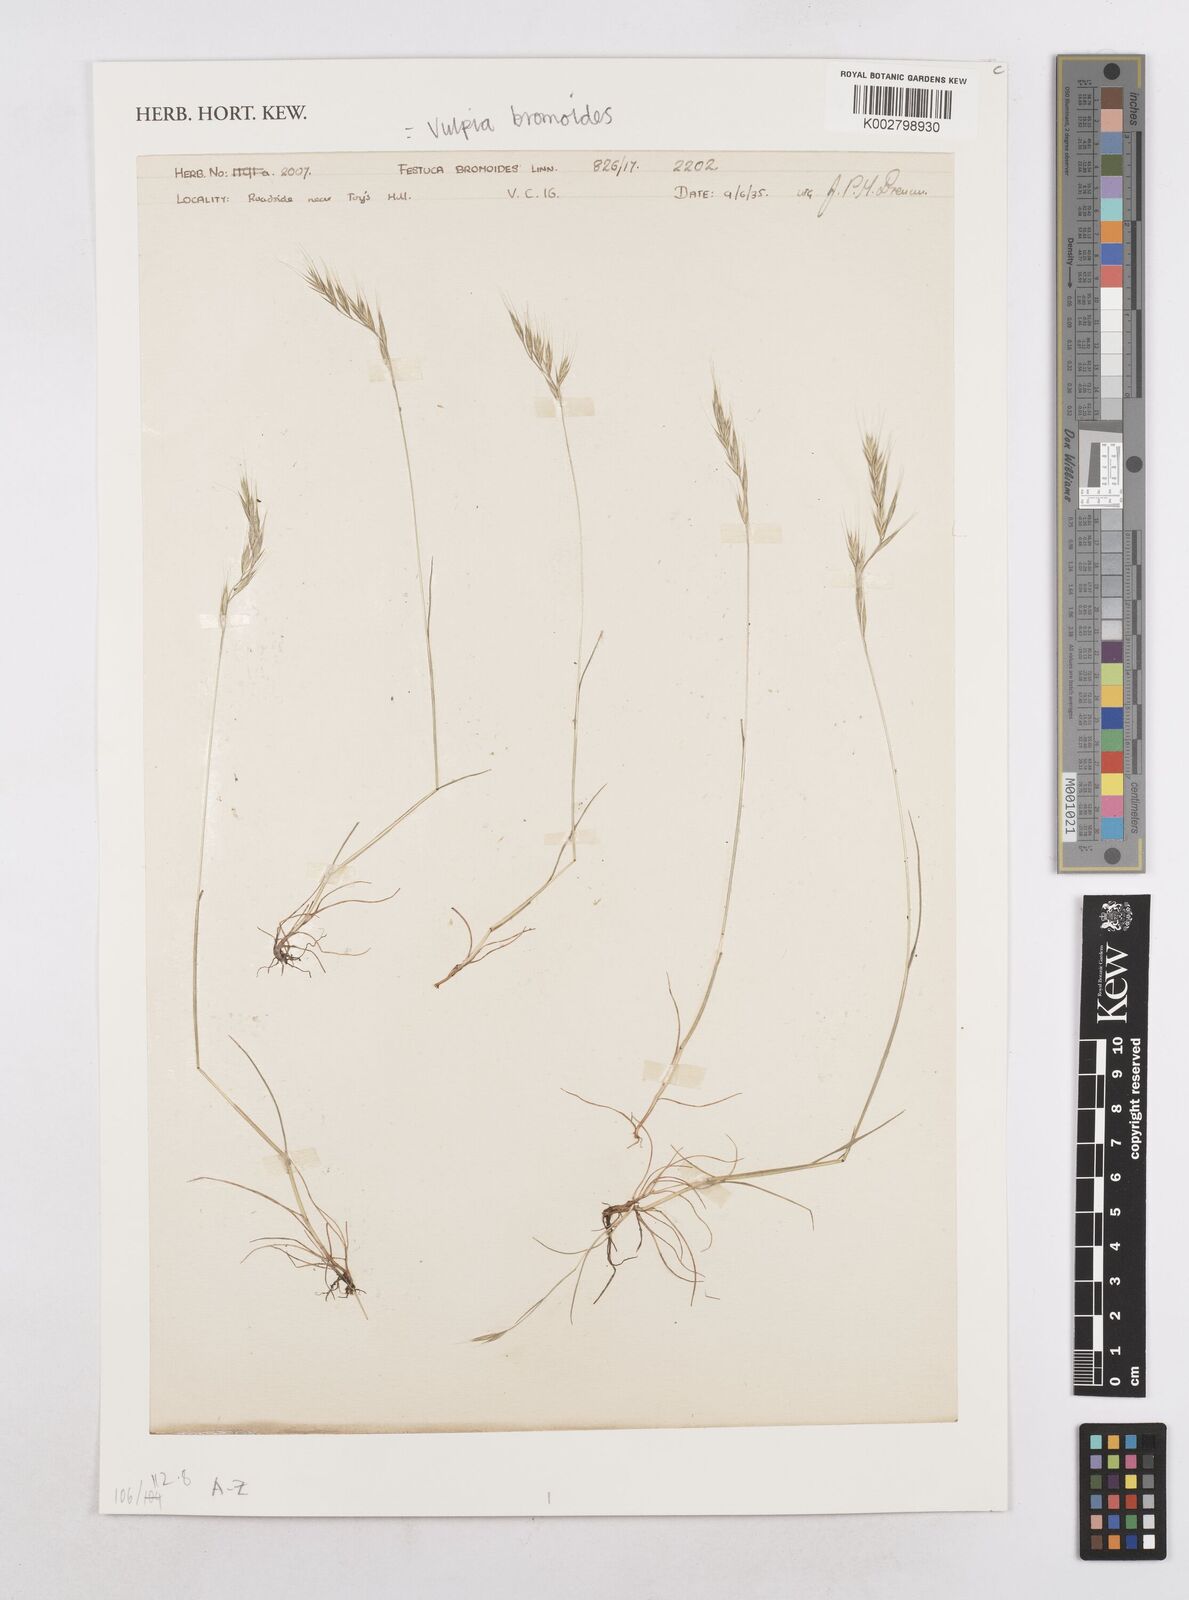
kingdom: Plantae
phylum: Tracheophyta
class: Liliopsida
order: Poales
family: Poaceae
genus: Festuca
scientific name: Festuca bromoides
